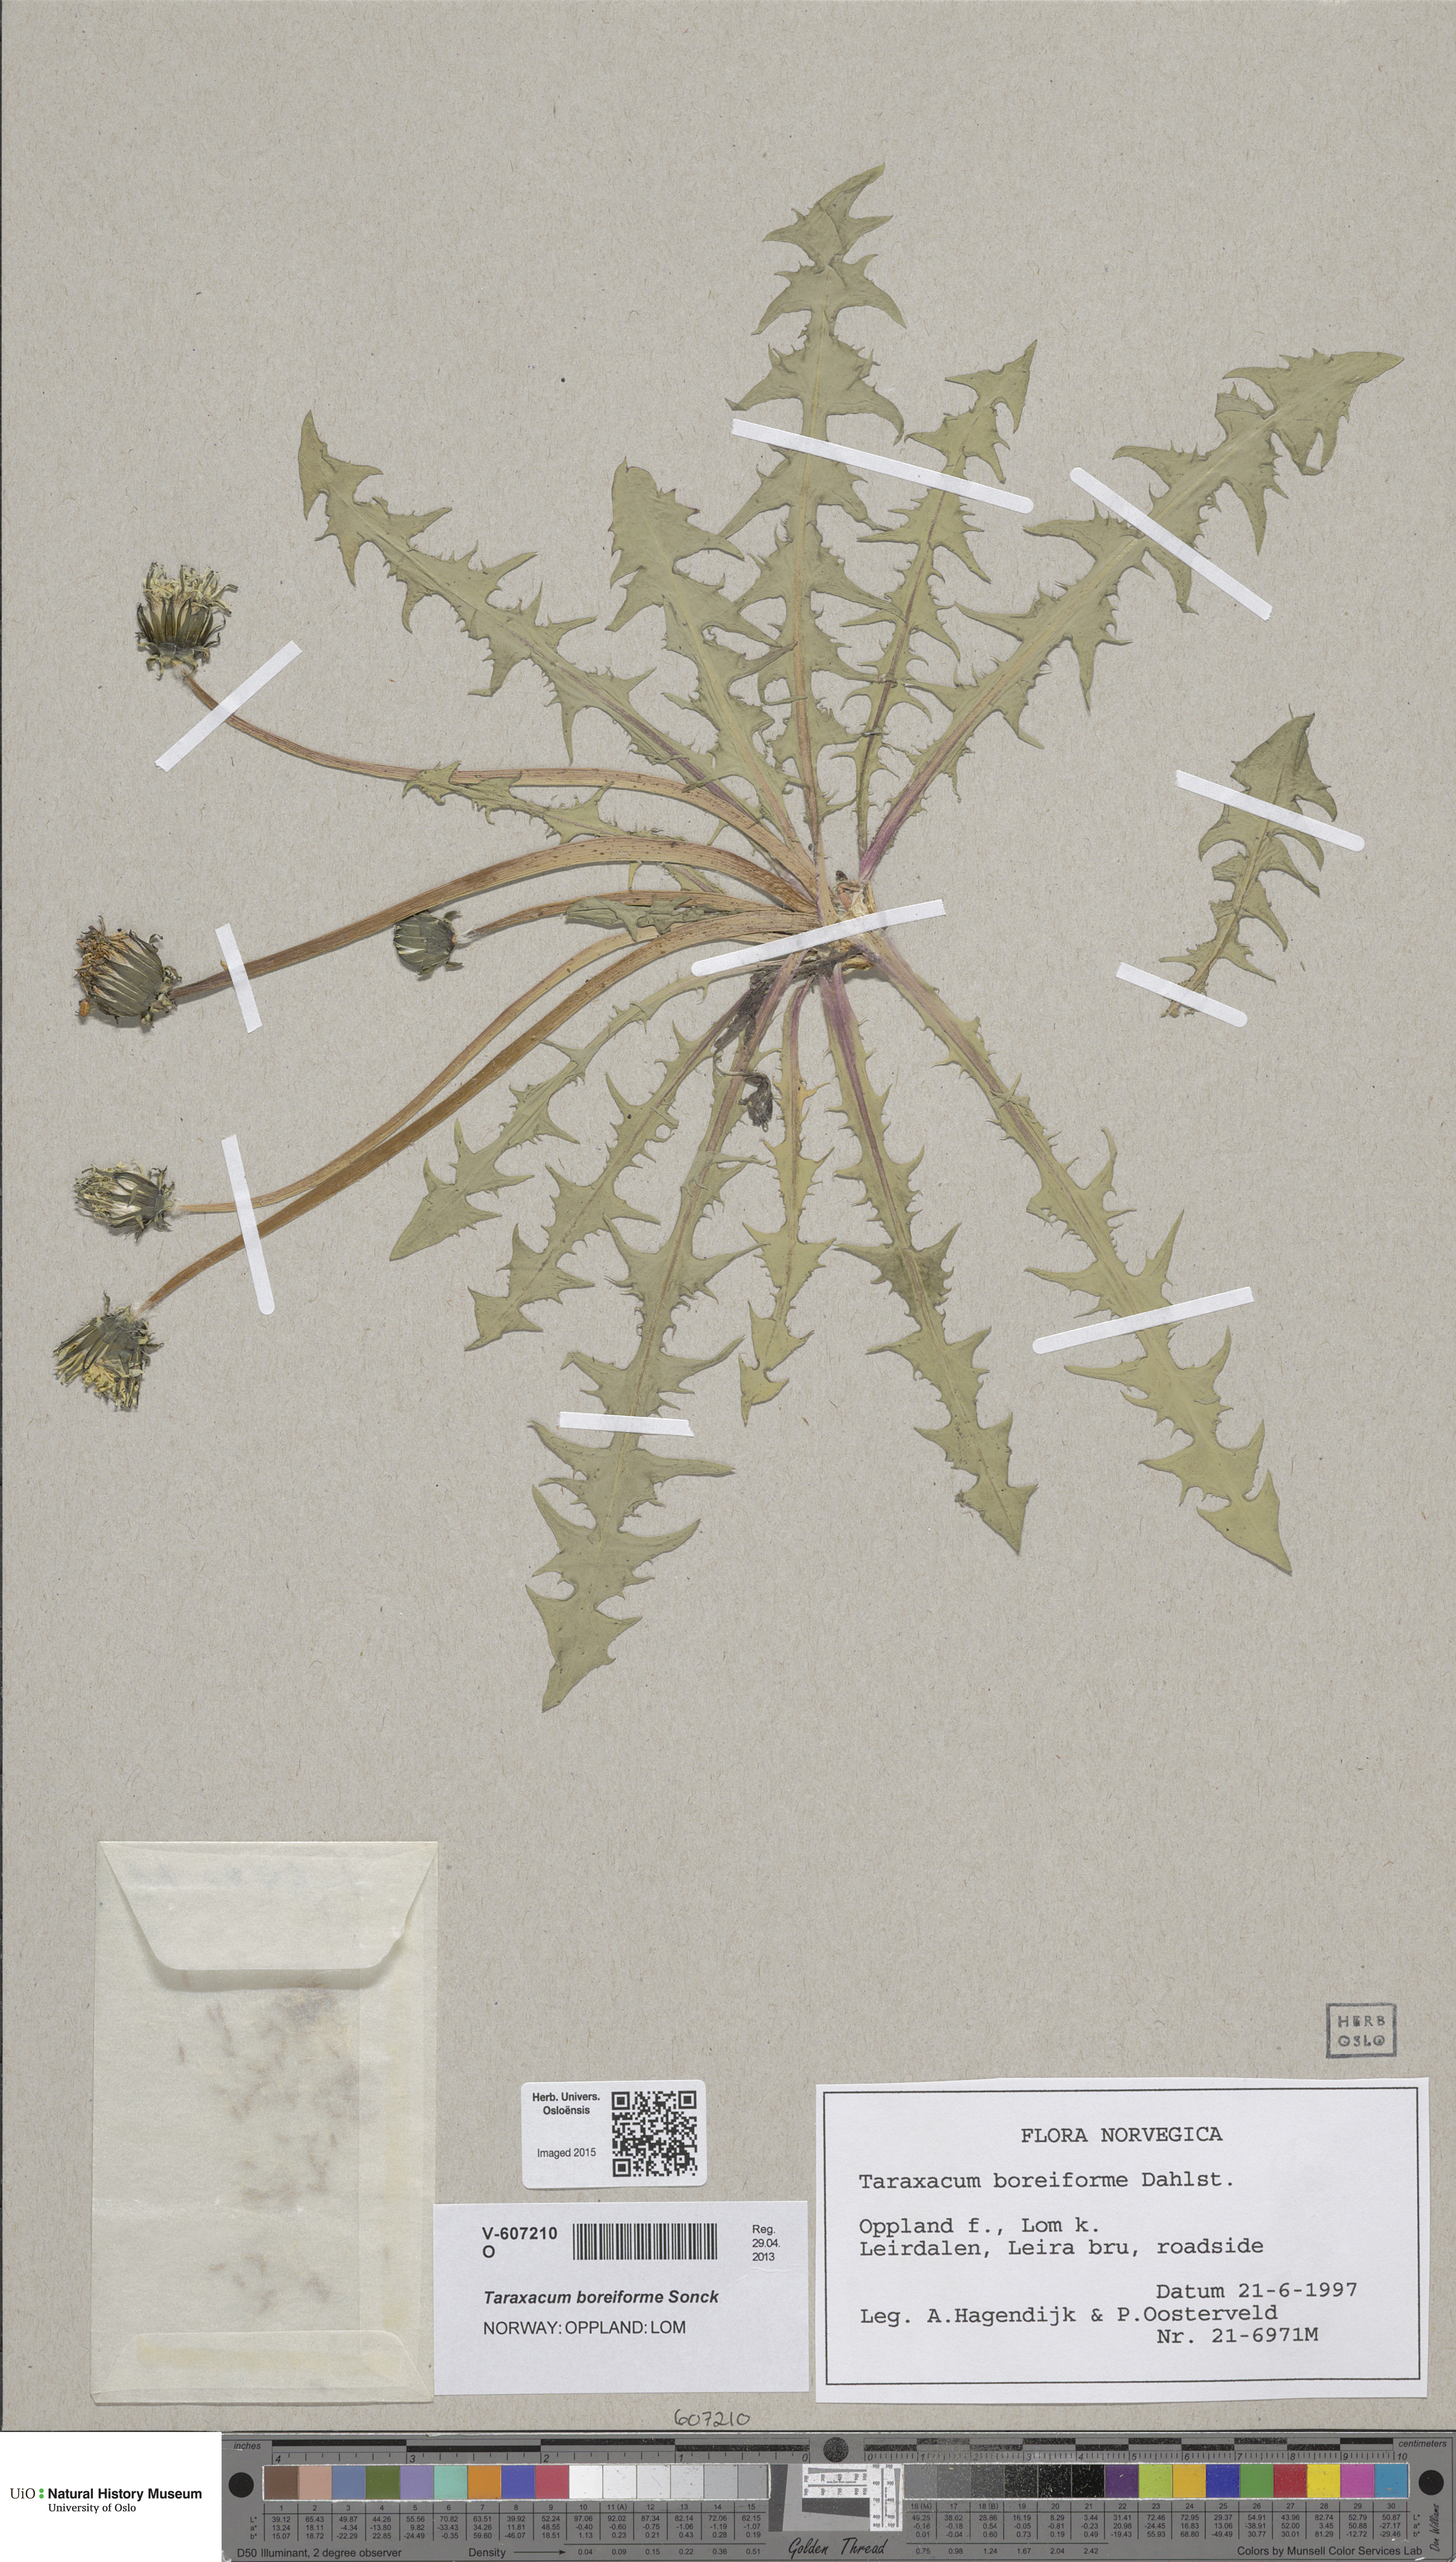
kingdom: Plantae
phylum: Tracheophyta
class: Magnoliopsida
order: Asterales
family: Asteraceae
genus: Taraxacum
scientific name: Taraxacum boreiforme
